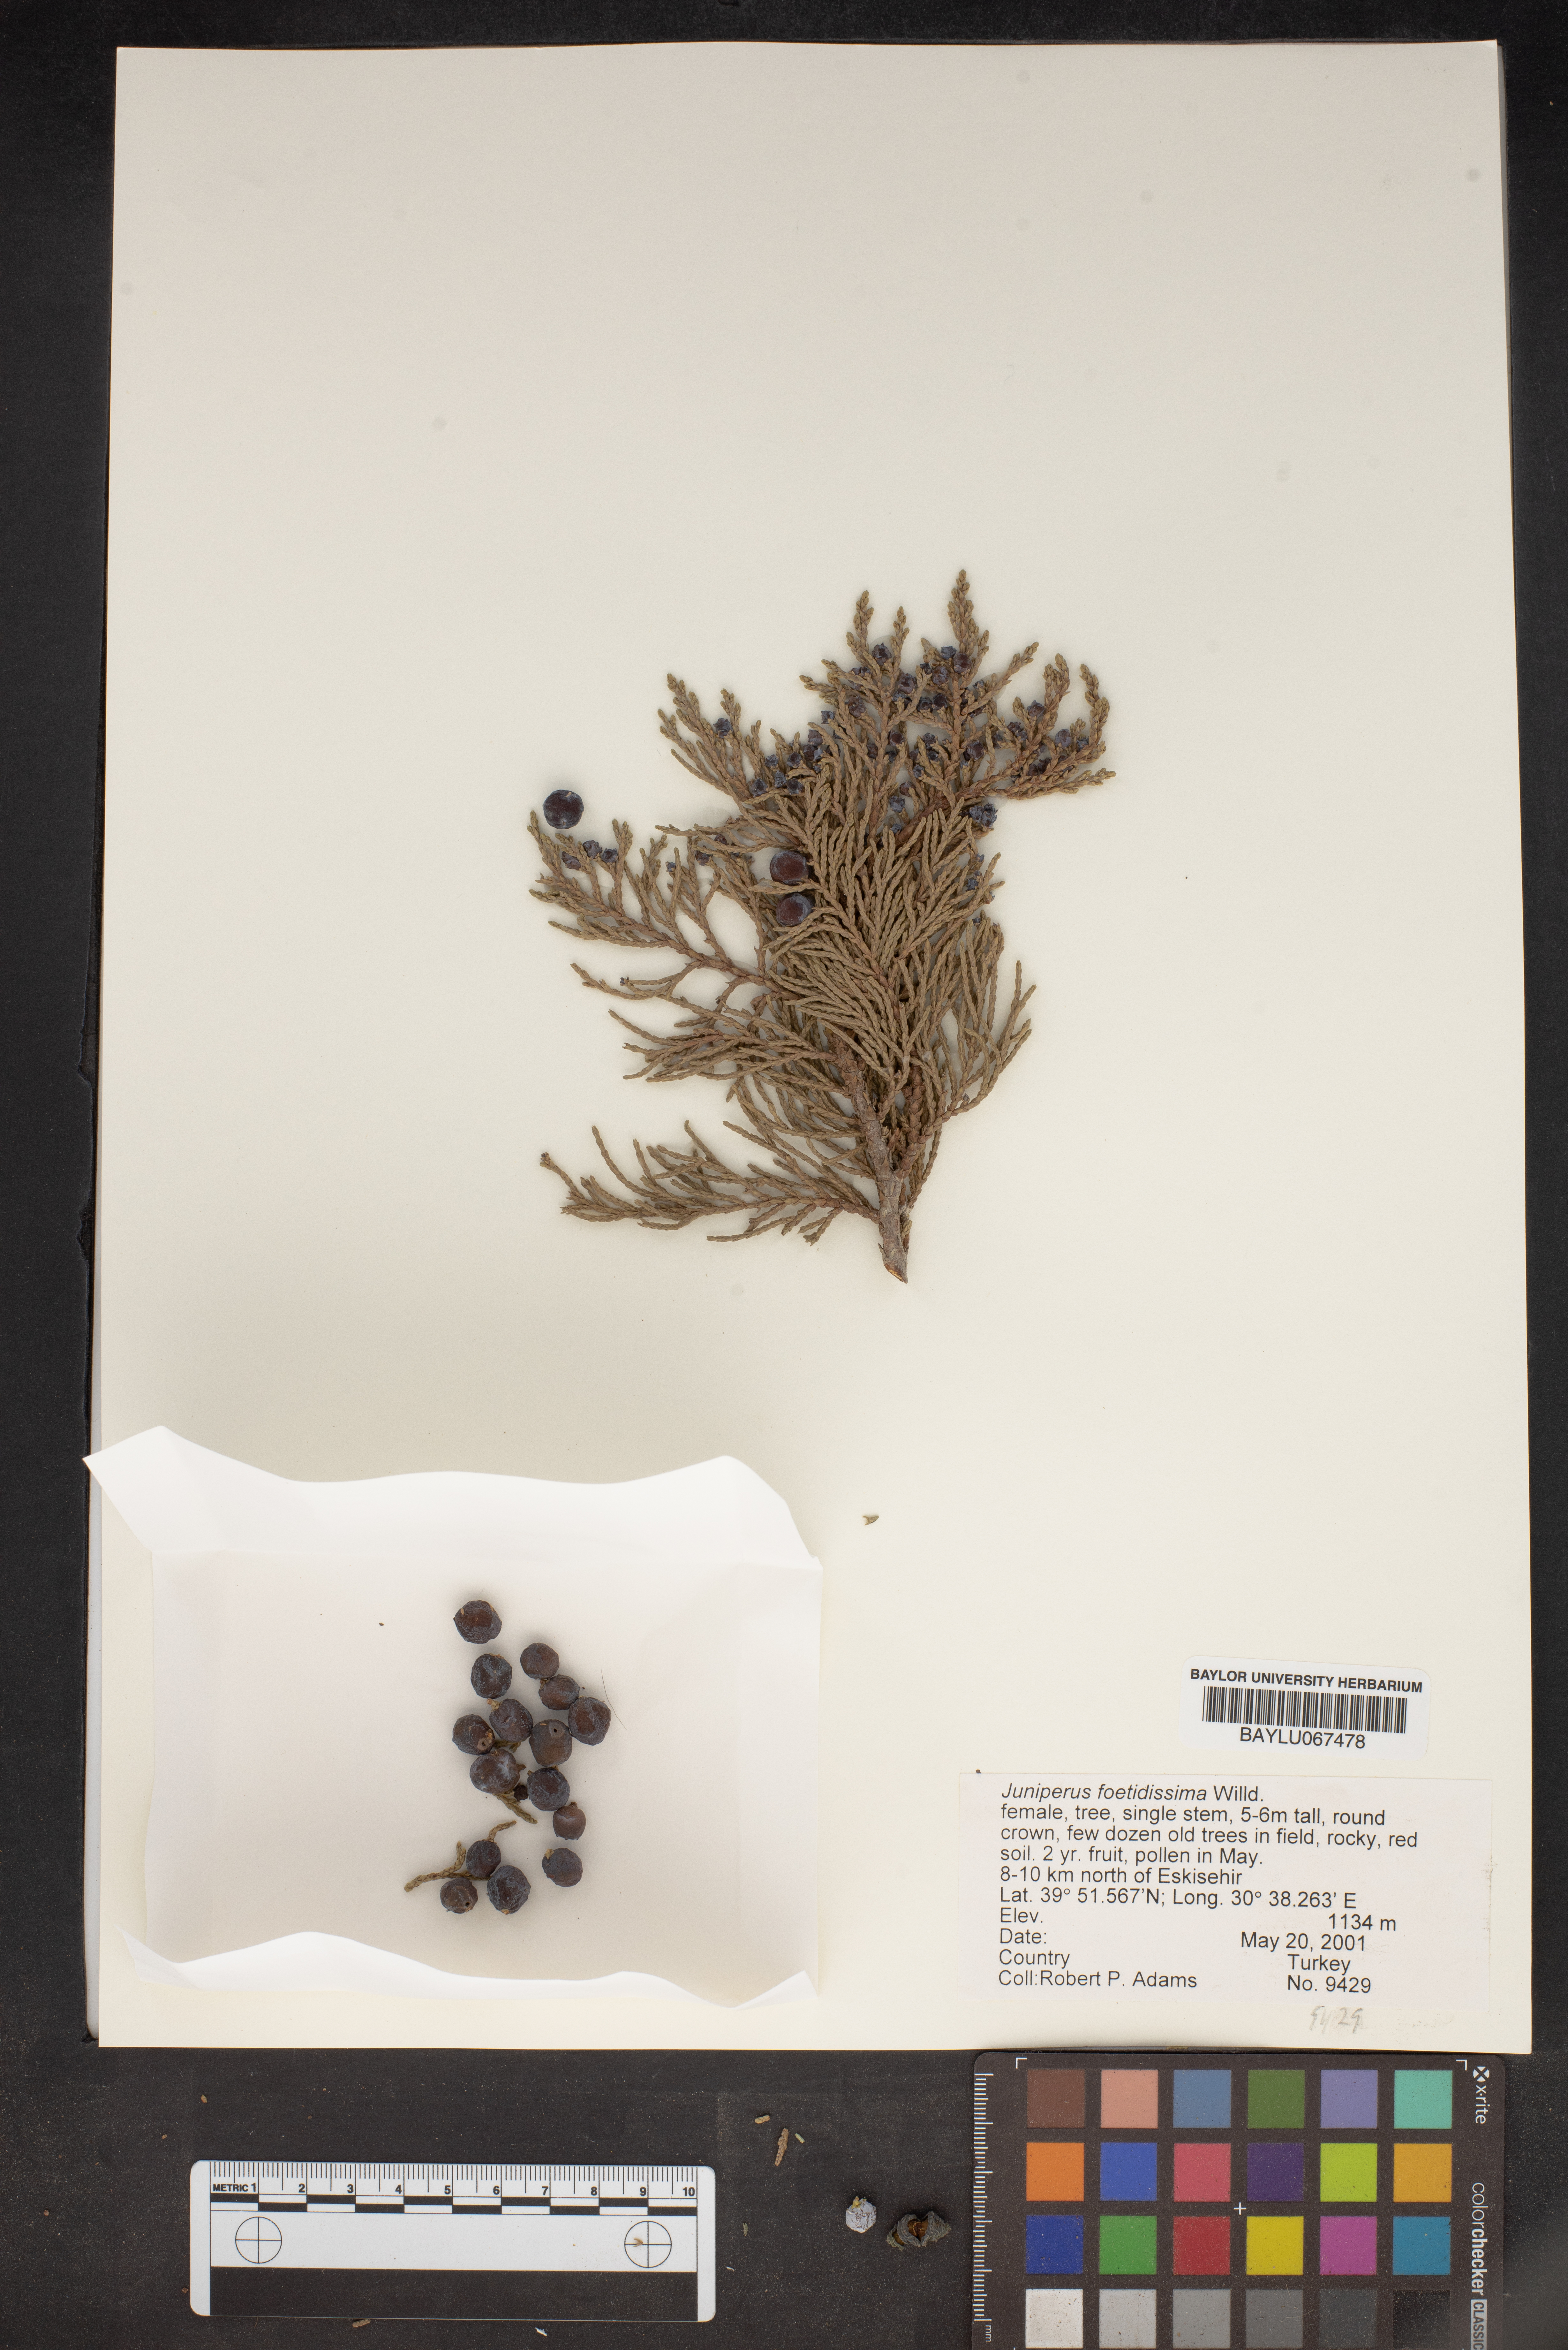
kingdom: Plantae
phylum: Tracheophyta
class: Pinopsida
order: Pinales
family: Cupressaceae
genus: Juniperus
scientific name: Juniperus foetidissima
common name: Stinking juniper
